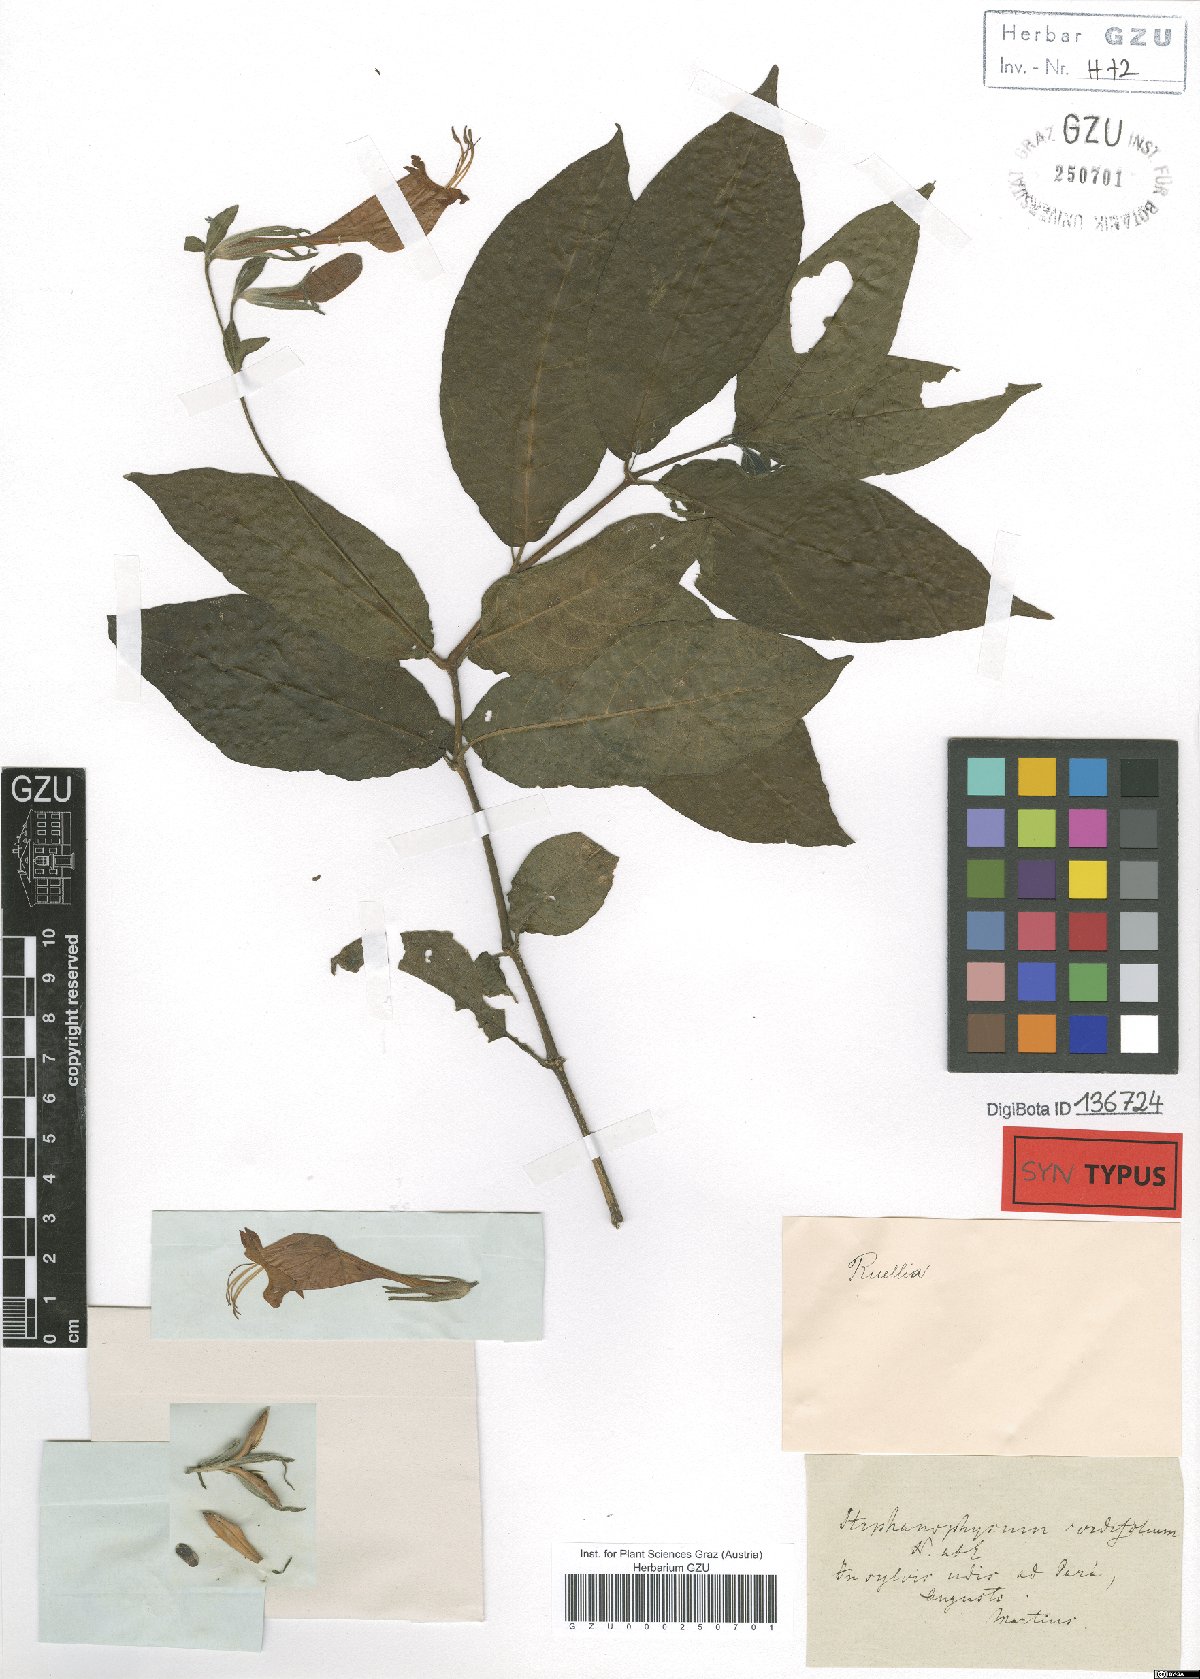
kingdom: Plantae
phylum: Tracheophyta
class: Magnoliopsida
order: Lamiales
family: Acanthaceae
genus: Ruellia
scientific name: Ruellia inflata
